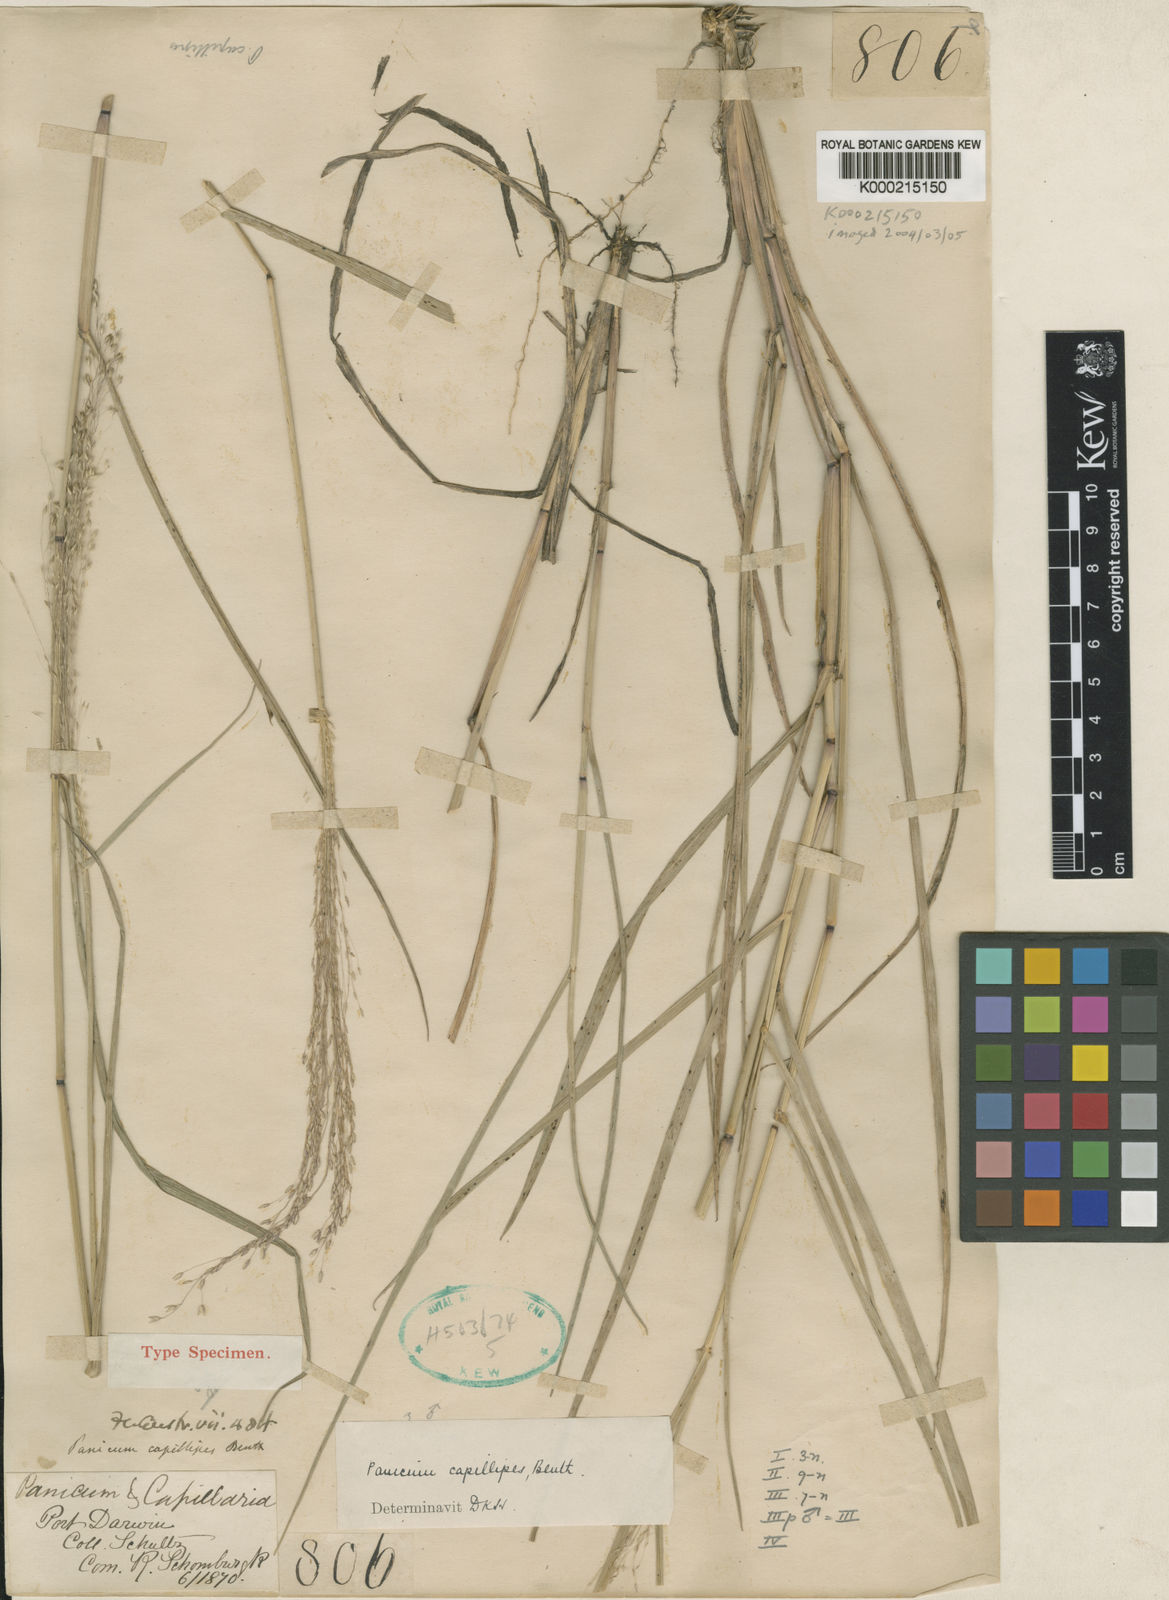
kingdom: Plantae
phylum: Tracheophyta
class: Liliopsida
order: Poales
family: Poaceae
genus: Whiteochloa
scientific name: Whiteochloa capillipes
